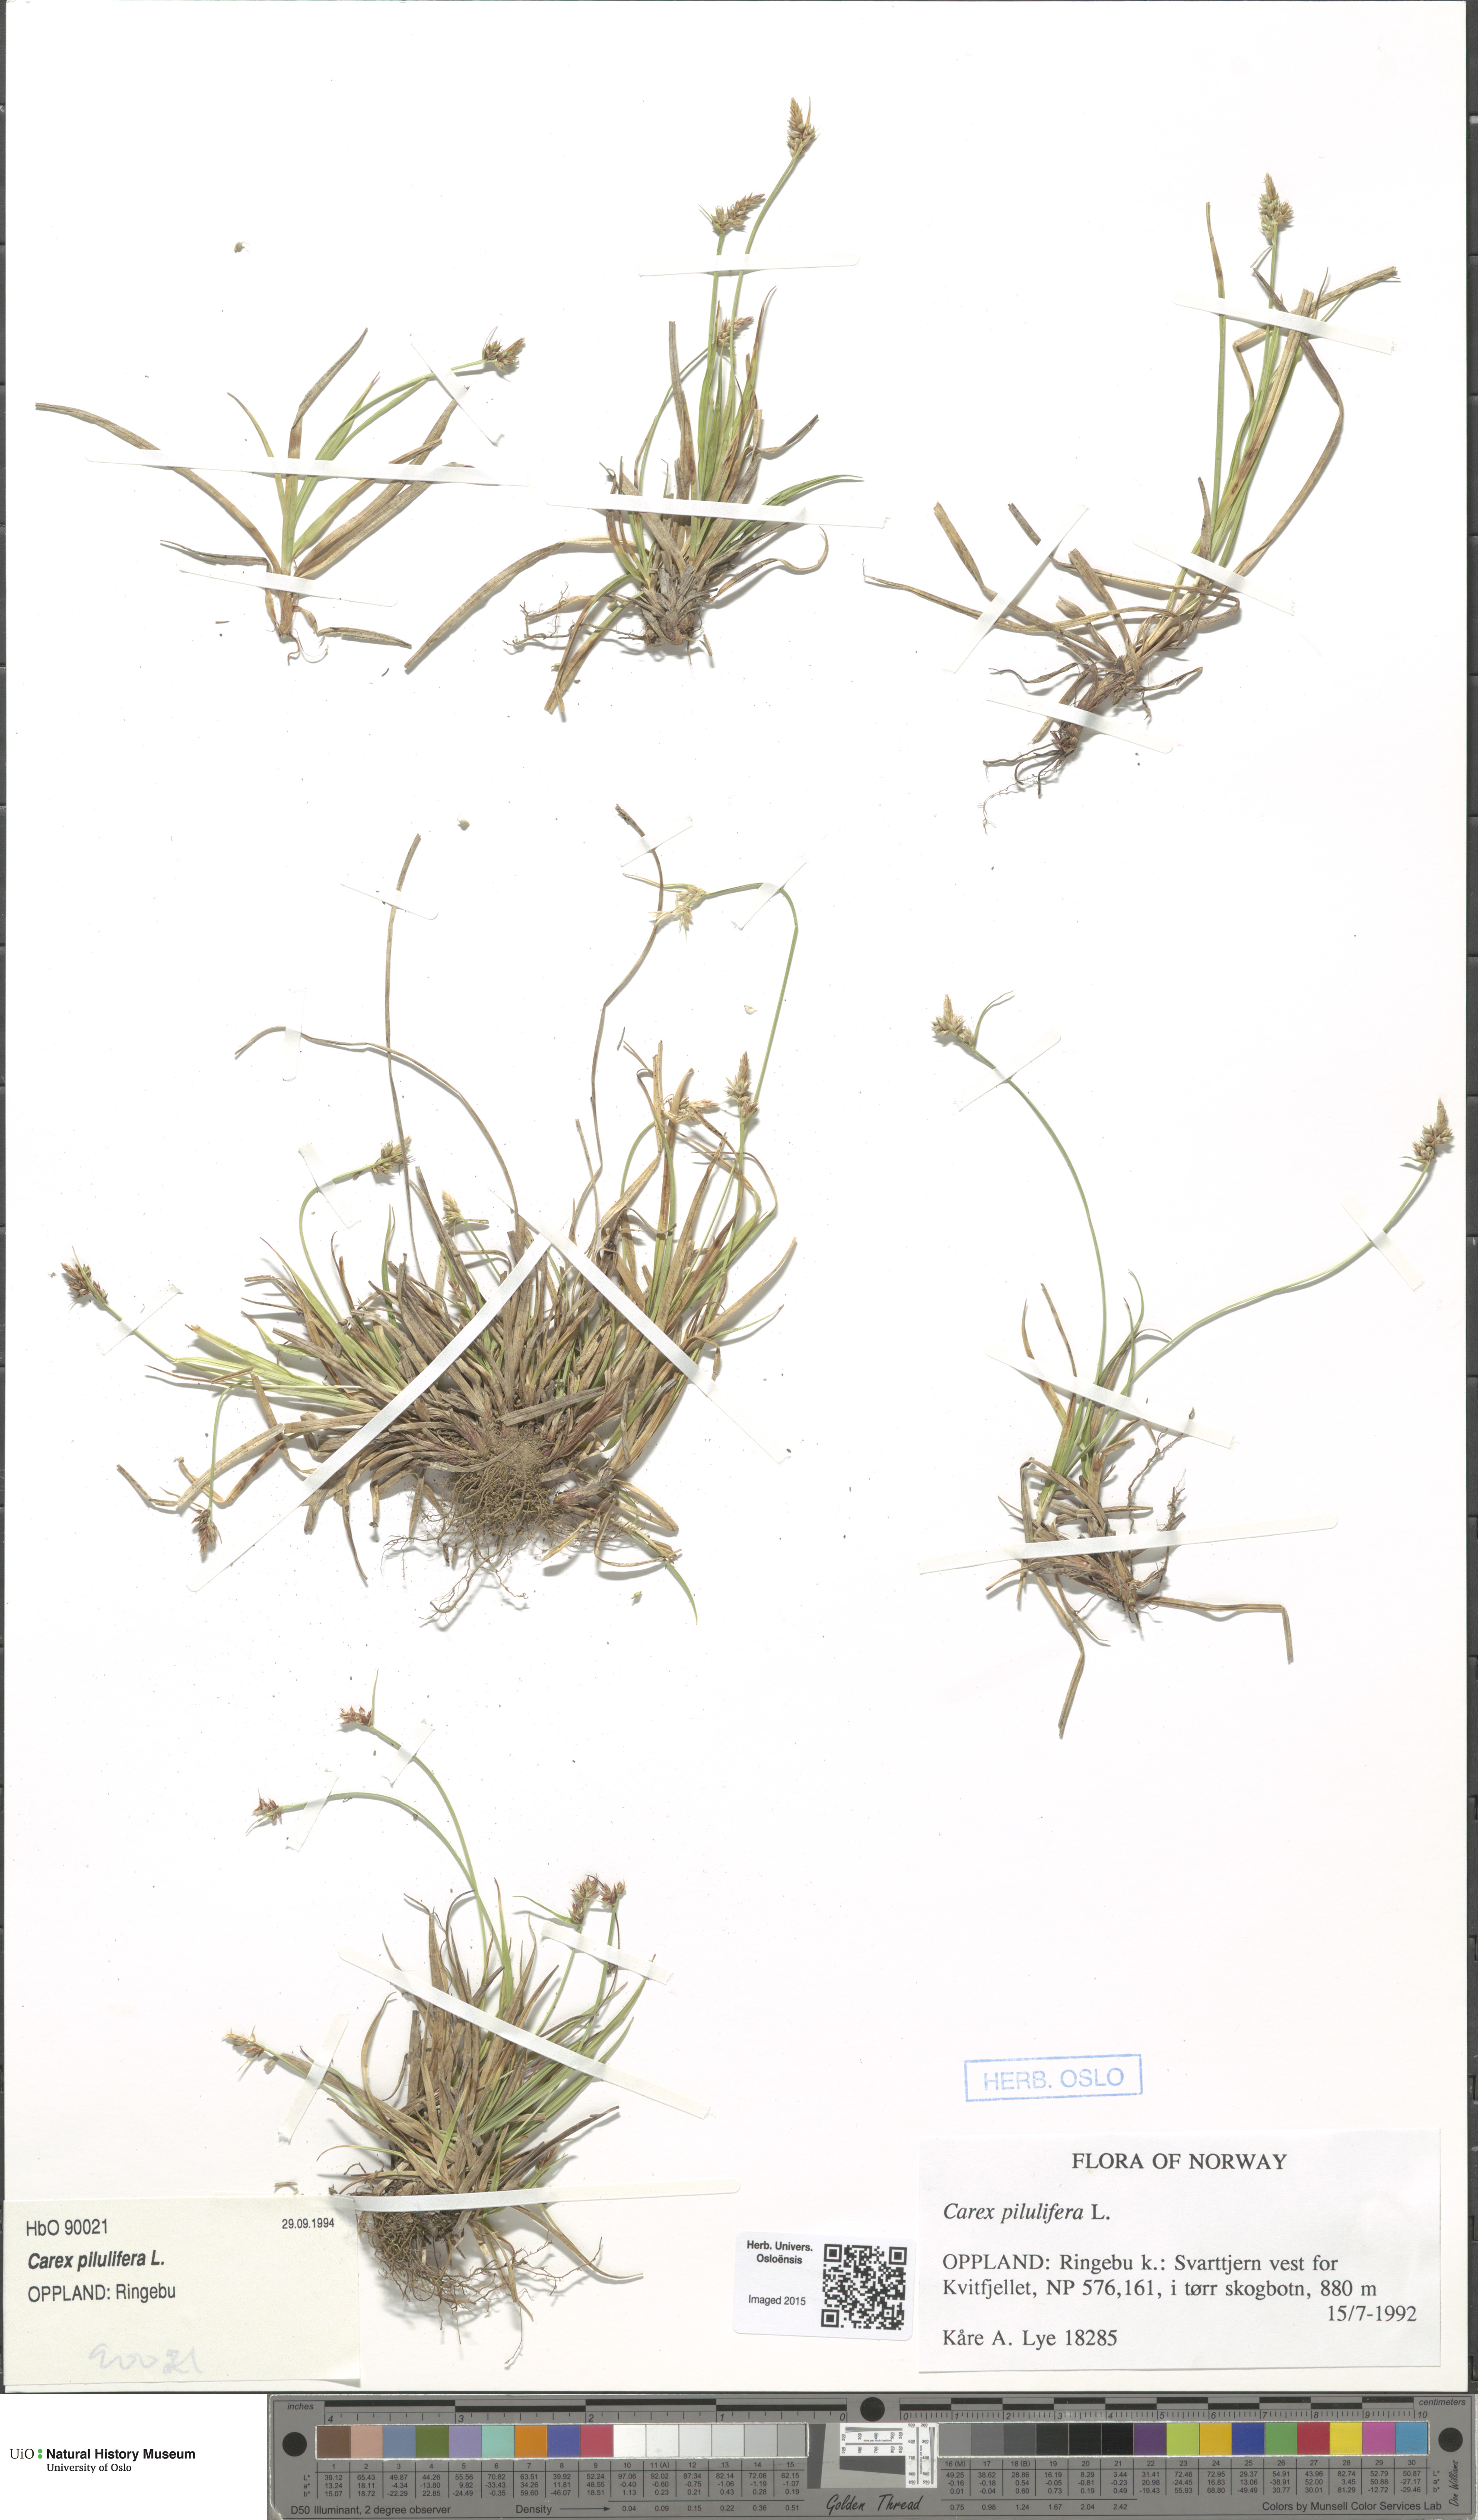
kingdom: Plantae
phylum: Tracheophyta
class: Liliopsida
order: Poales
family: Cyperaceae
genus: Carex
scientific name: Carex pilulifera
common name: Pill sedge
